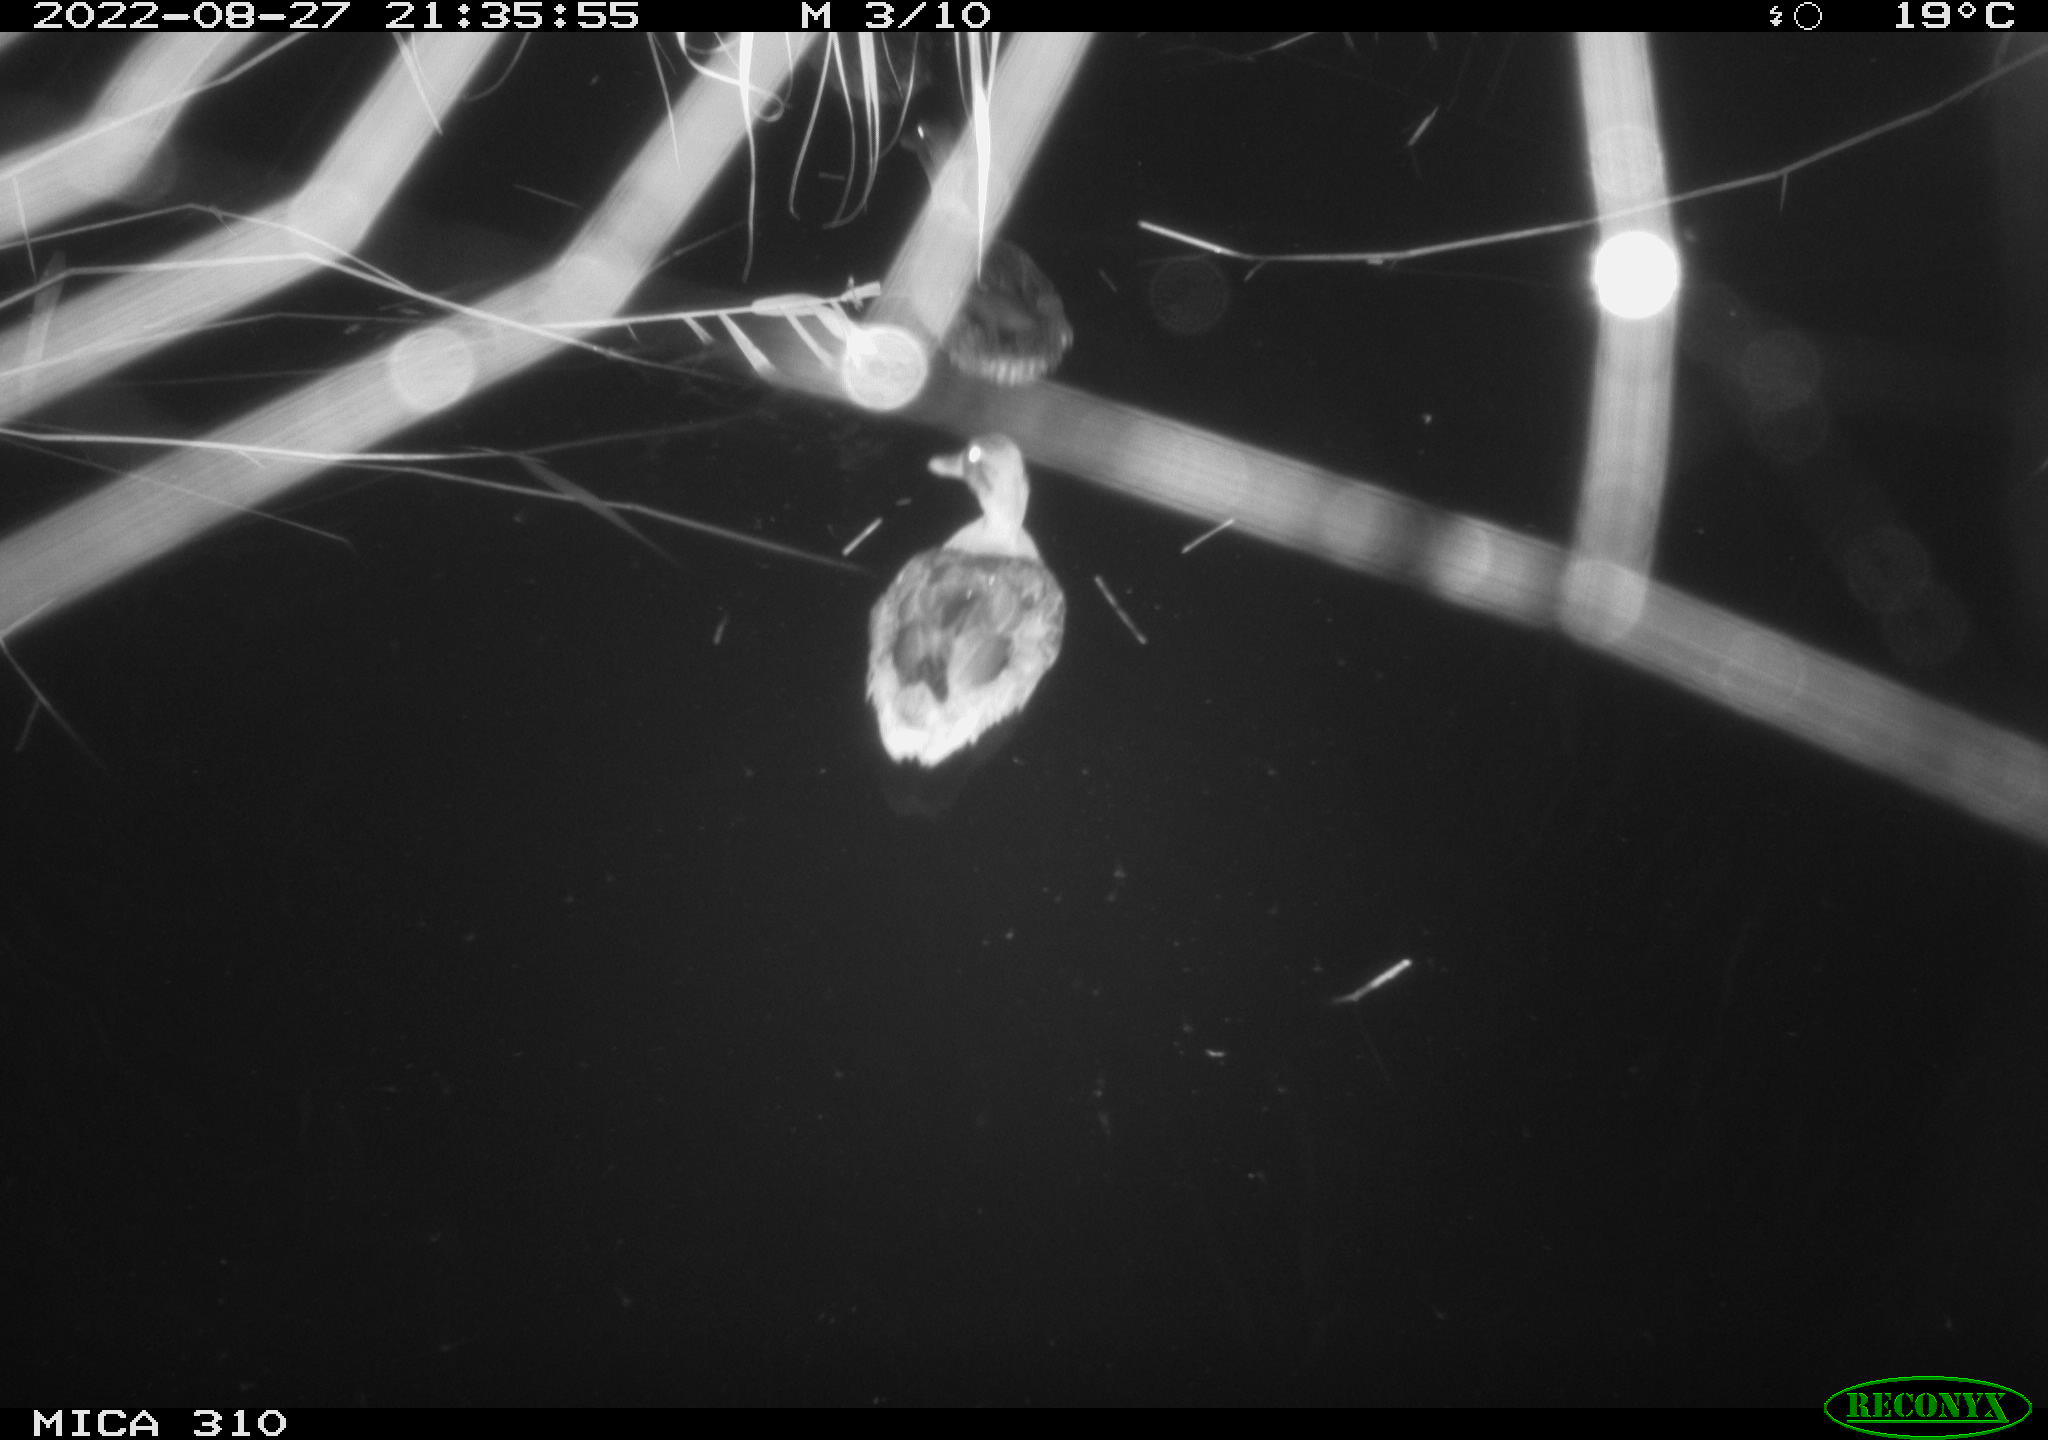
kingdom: Animalia
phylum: Chordata
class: Aves
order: Anseriformes
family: Anatidae
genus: Anas
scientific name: Anas platyrhynchos
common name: Mallard
